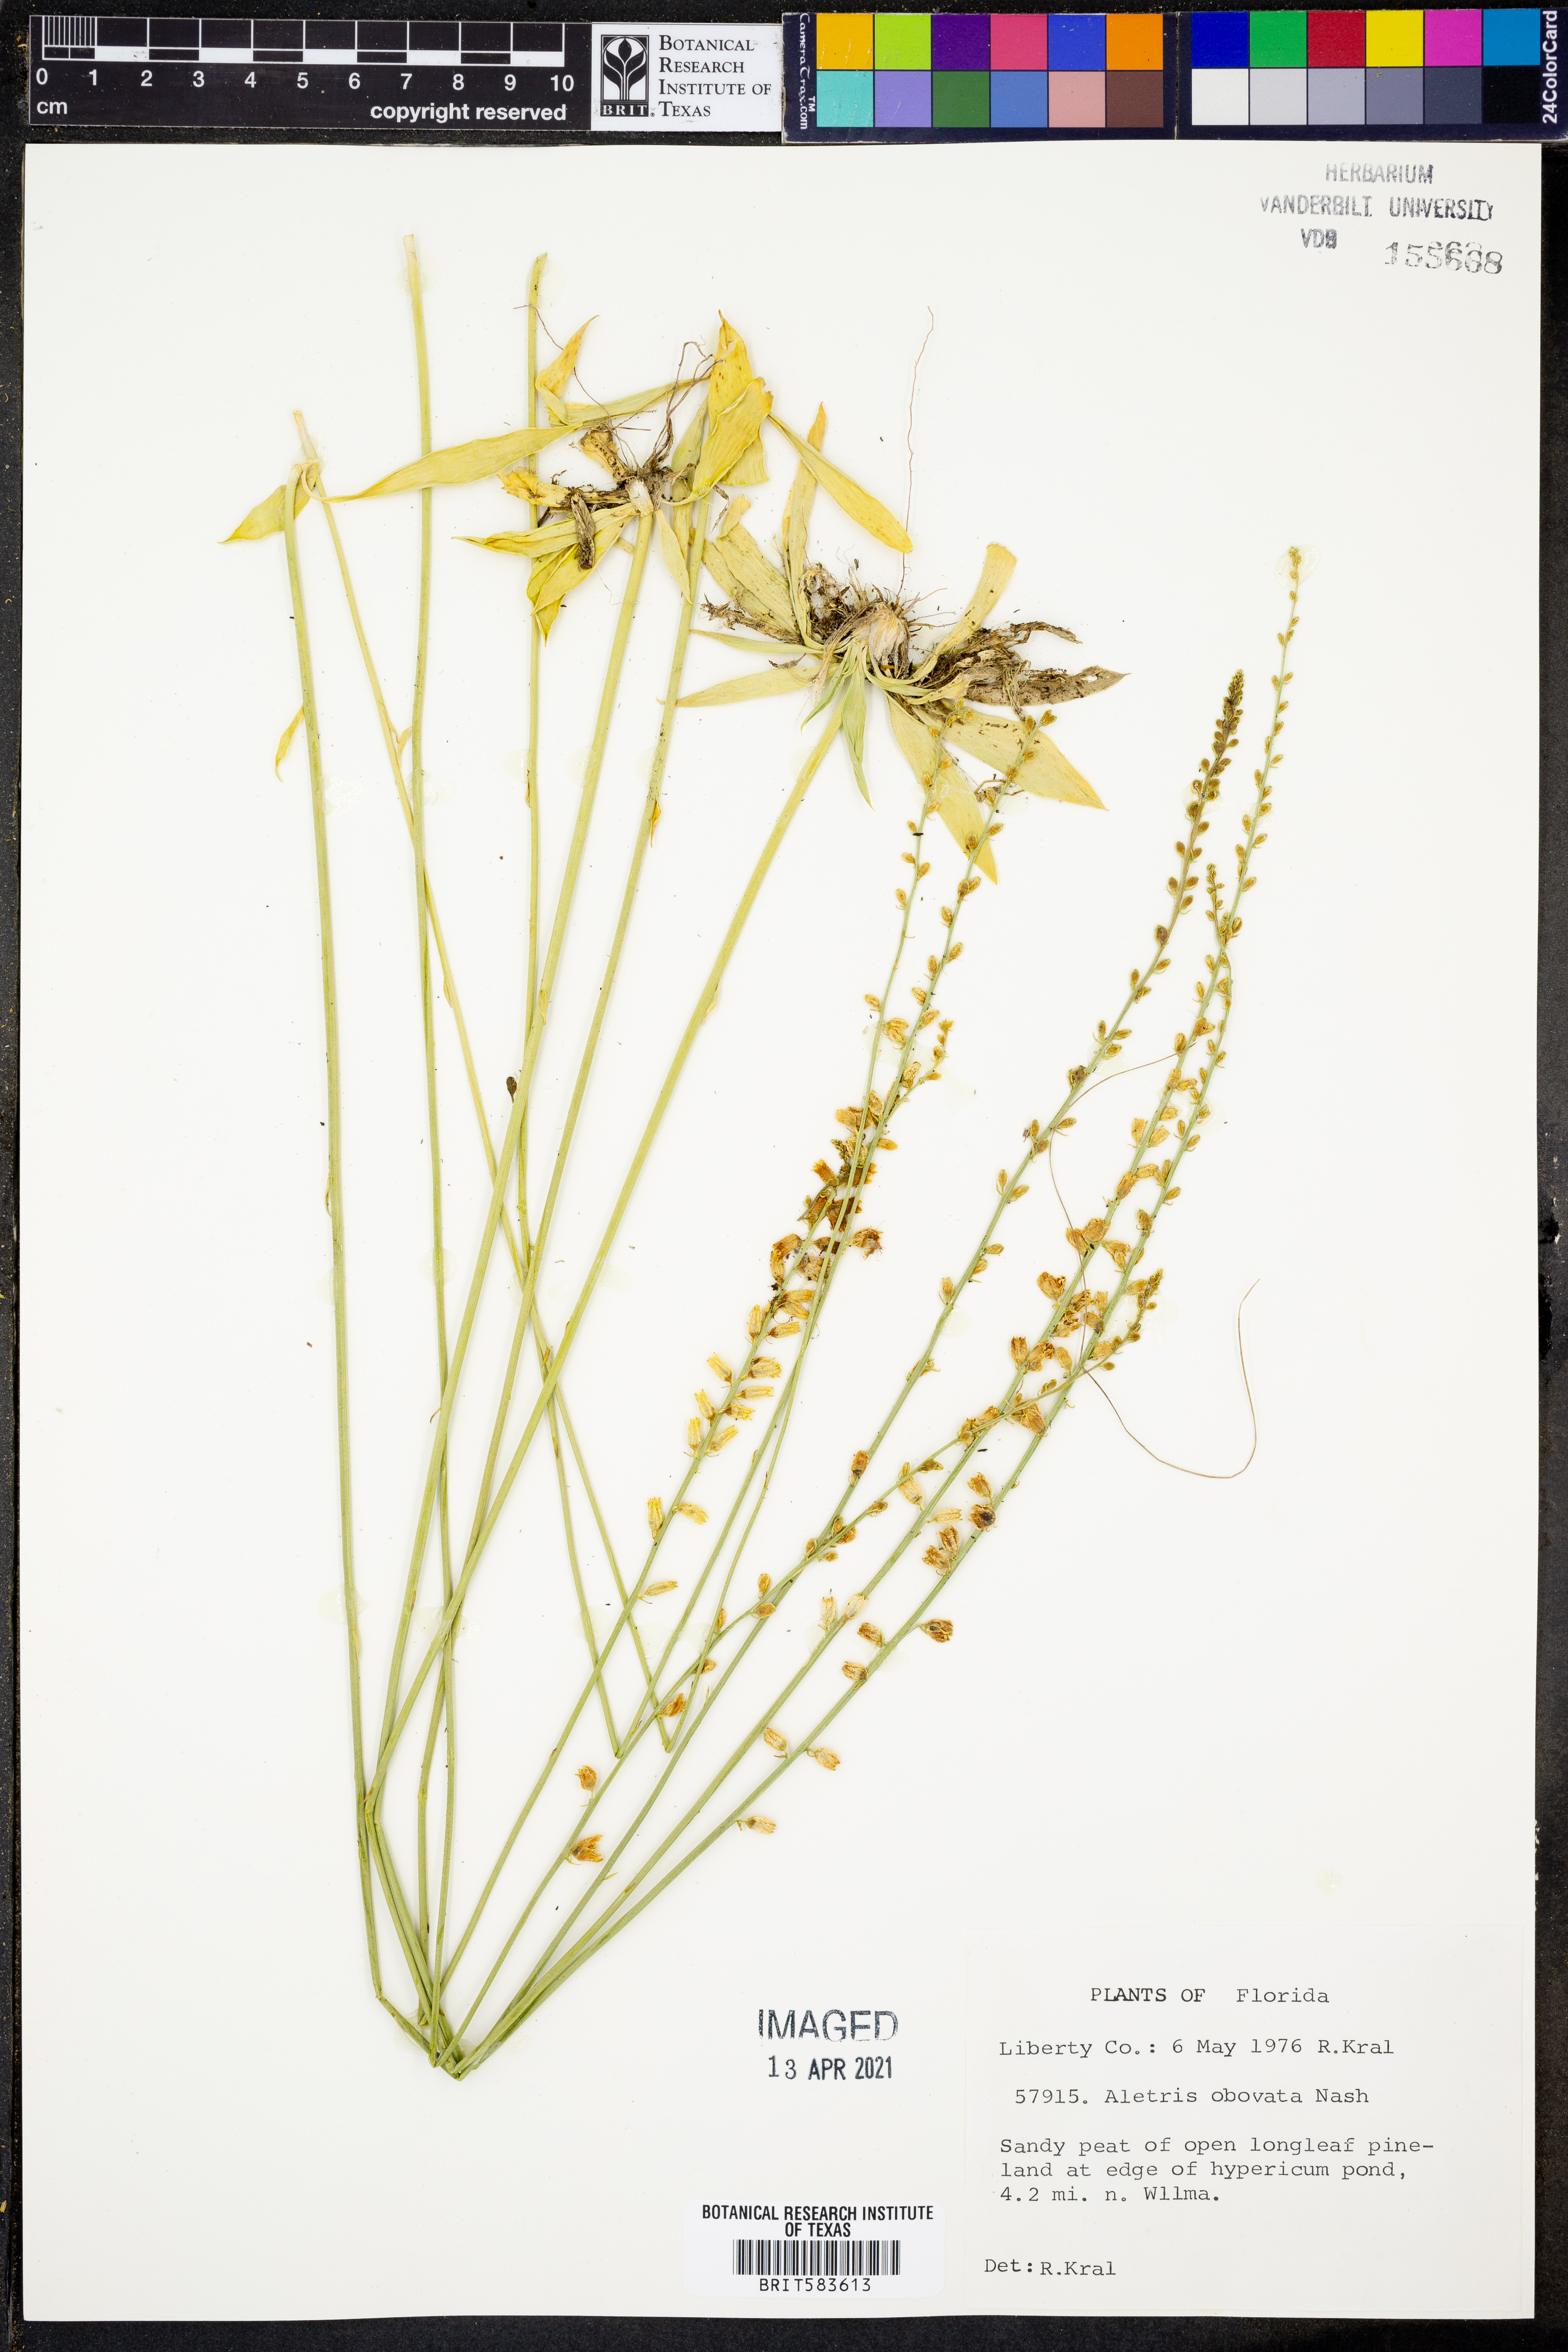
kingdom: Plantae
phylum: Tracheophyta
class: Liliopsida
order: Dioscoreales
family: Nartheciaceae
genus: Aletris
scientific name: Aletris obovata
